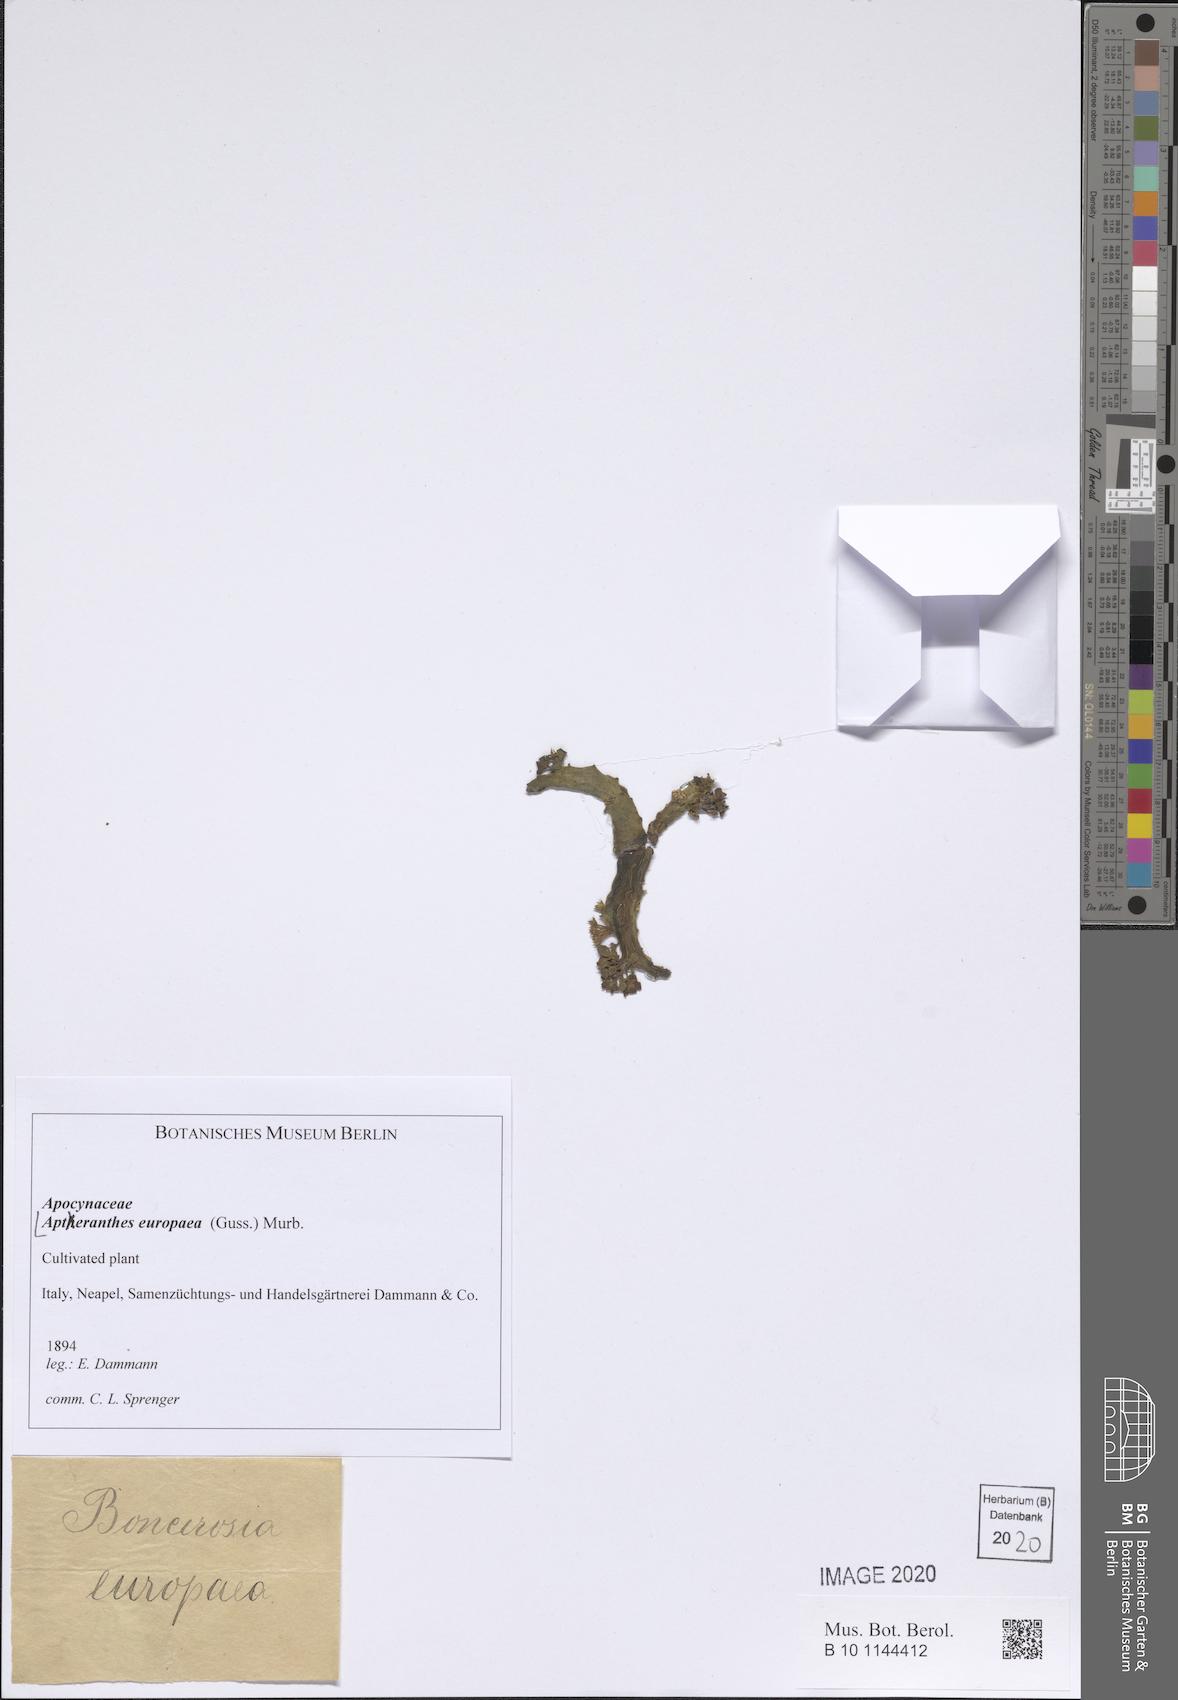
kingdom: Plantae
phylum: Tracheophyta
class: Magnoliopsida
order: Gentianales
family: Apocynaceae
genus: Ceropegia
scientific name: Ceropegia europaea
